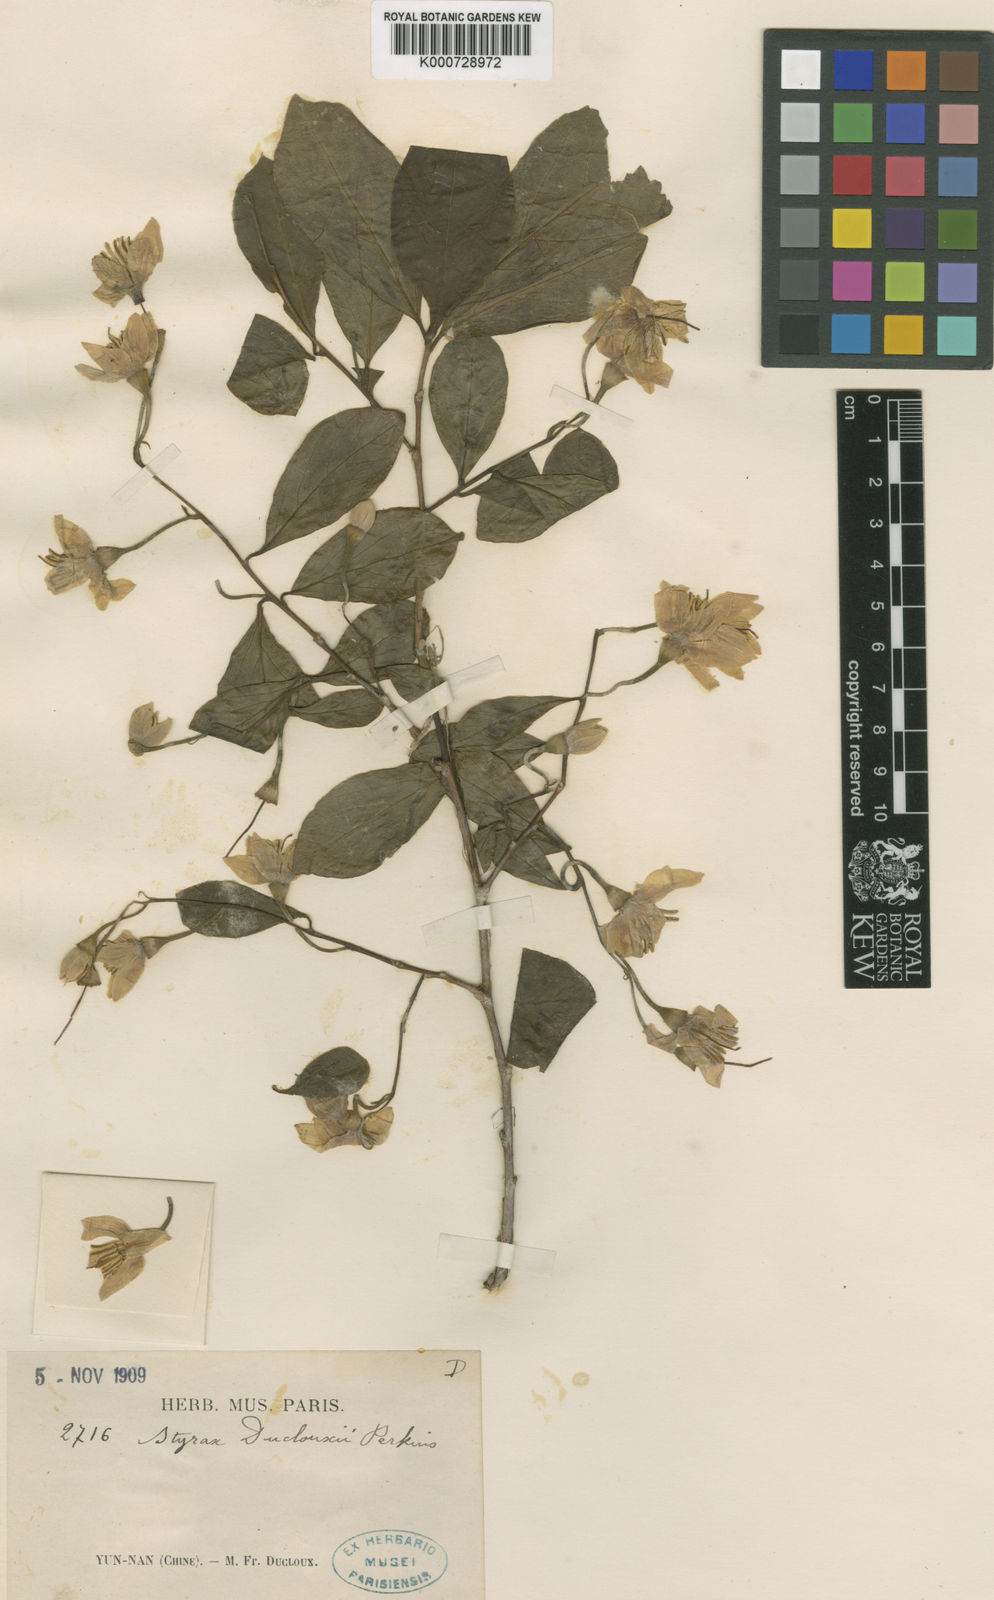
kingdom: Plantae
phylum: Tracheophyta
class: Magnoliopsida
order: Ericales
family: Styracaceae
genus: Styrax
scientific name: Styrax japonicus
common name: Japanese snowbell
